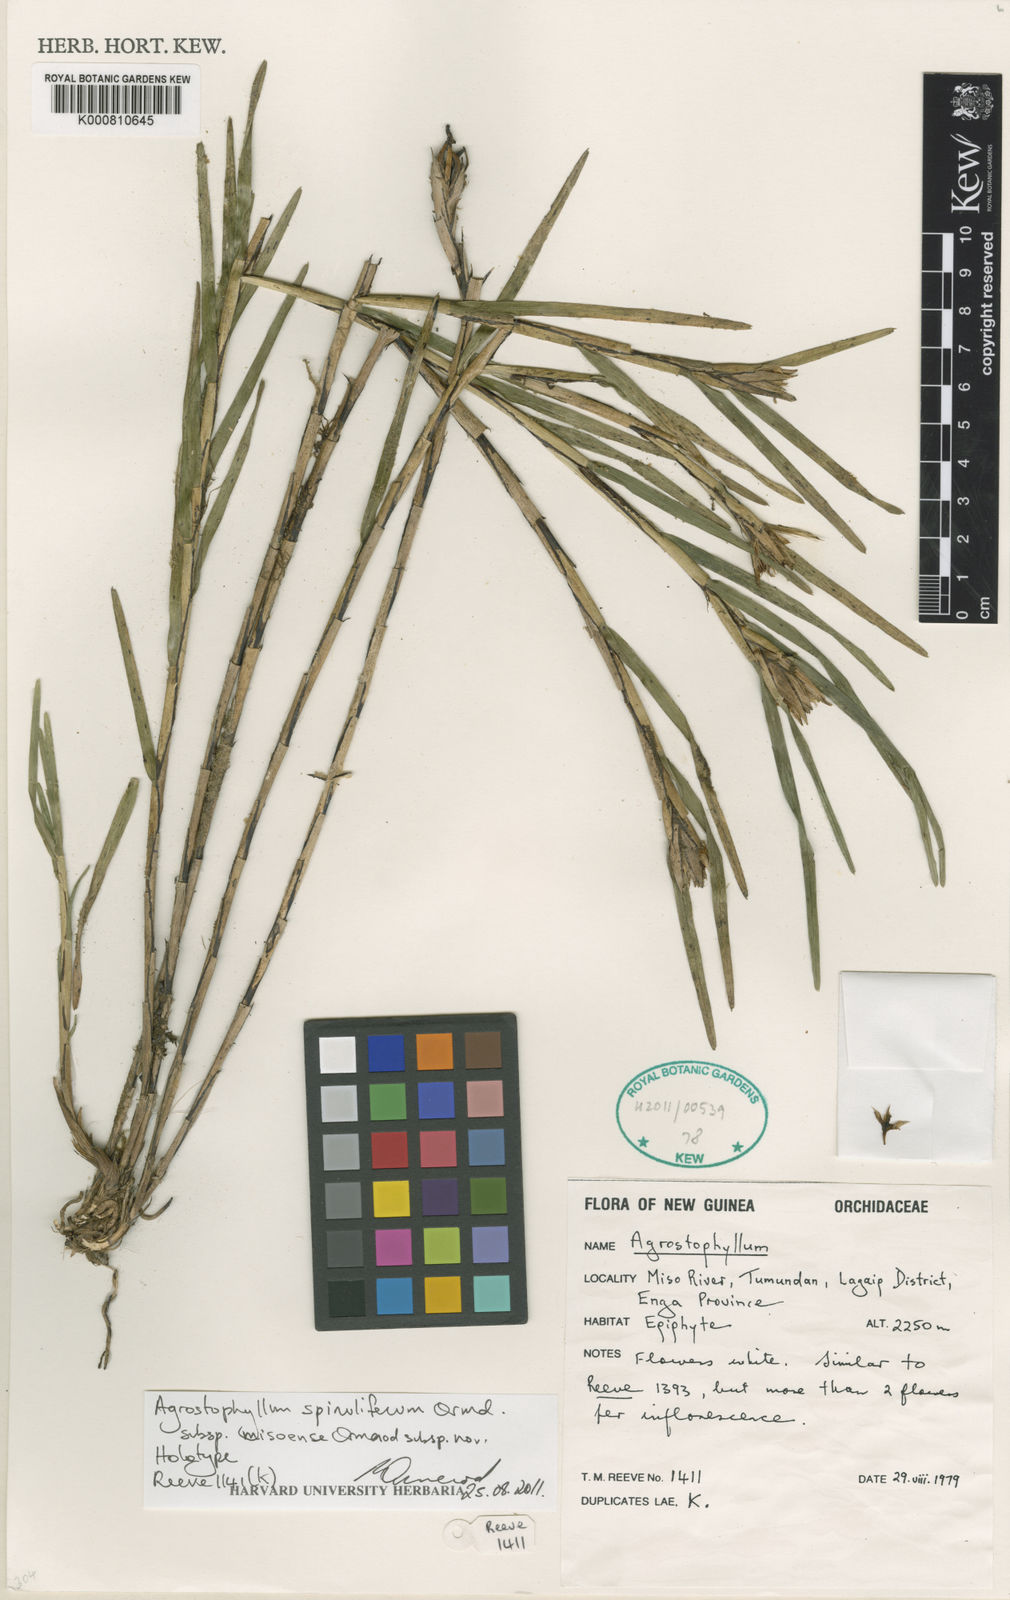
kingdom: Plantae
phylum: Tracheophyta
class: Liliopsida
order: Asparagales
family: Orchidaceae
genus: Agrostophyllum
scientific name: Agrostophyllum spinuliferum
